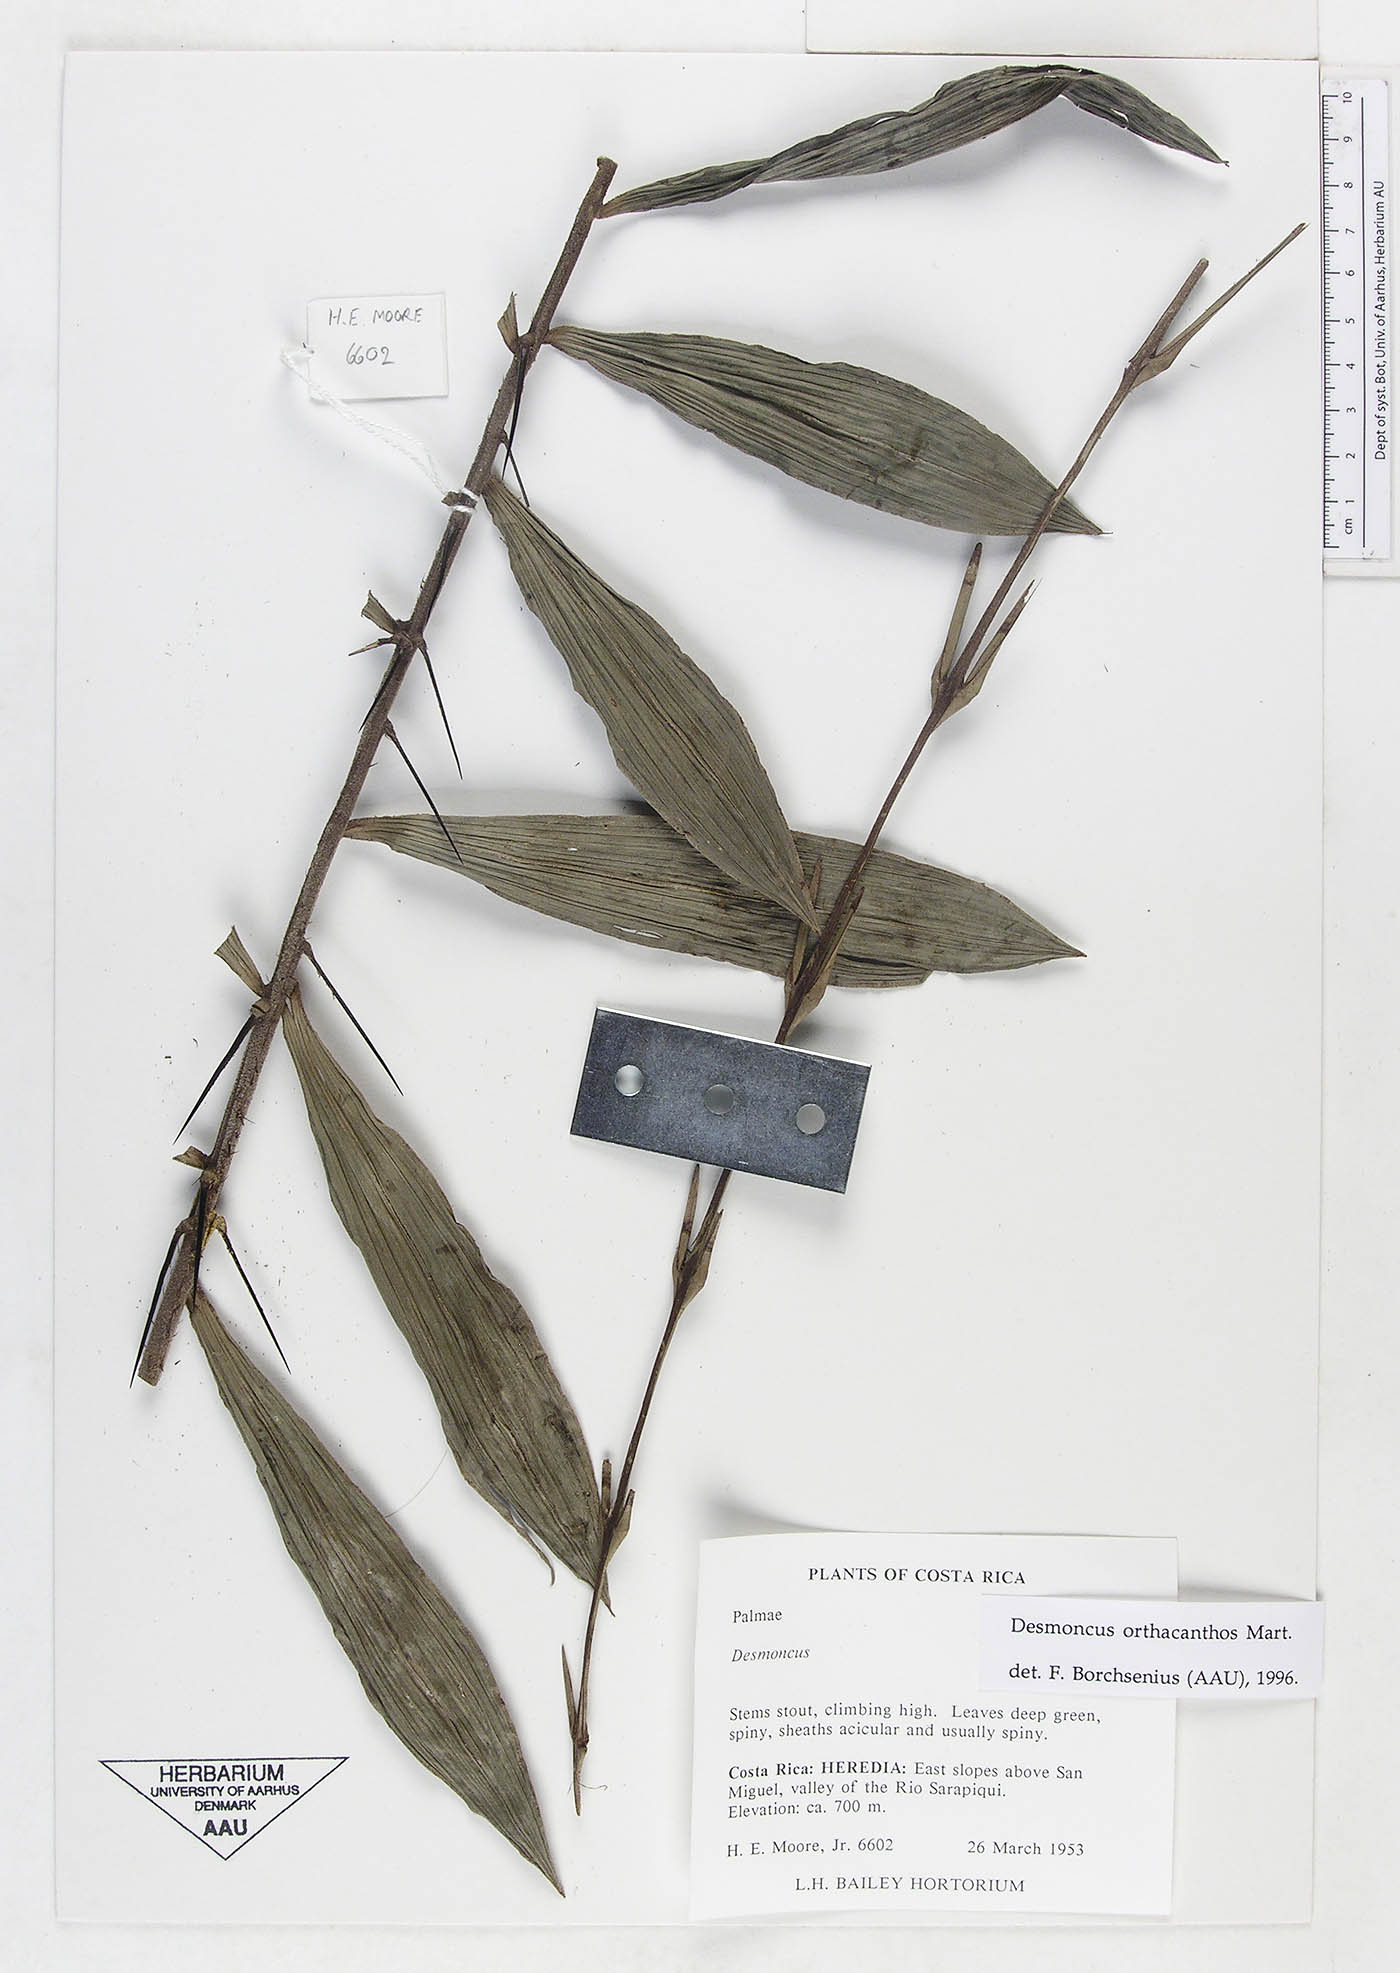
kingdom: Plantae
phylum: Tracheophyta
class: Liliopsida
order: Arecales
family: Arecaceae
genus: Desmoncus
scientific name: Desmoncus orthacanthos
